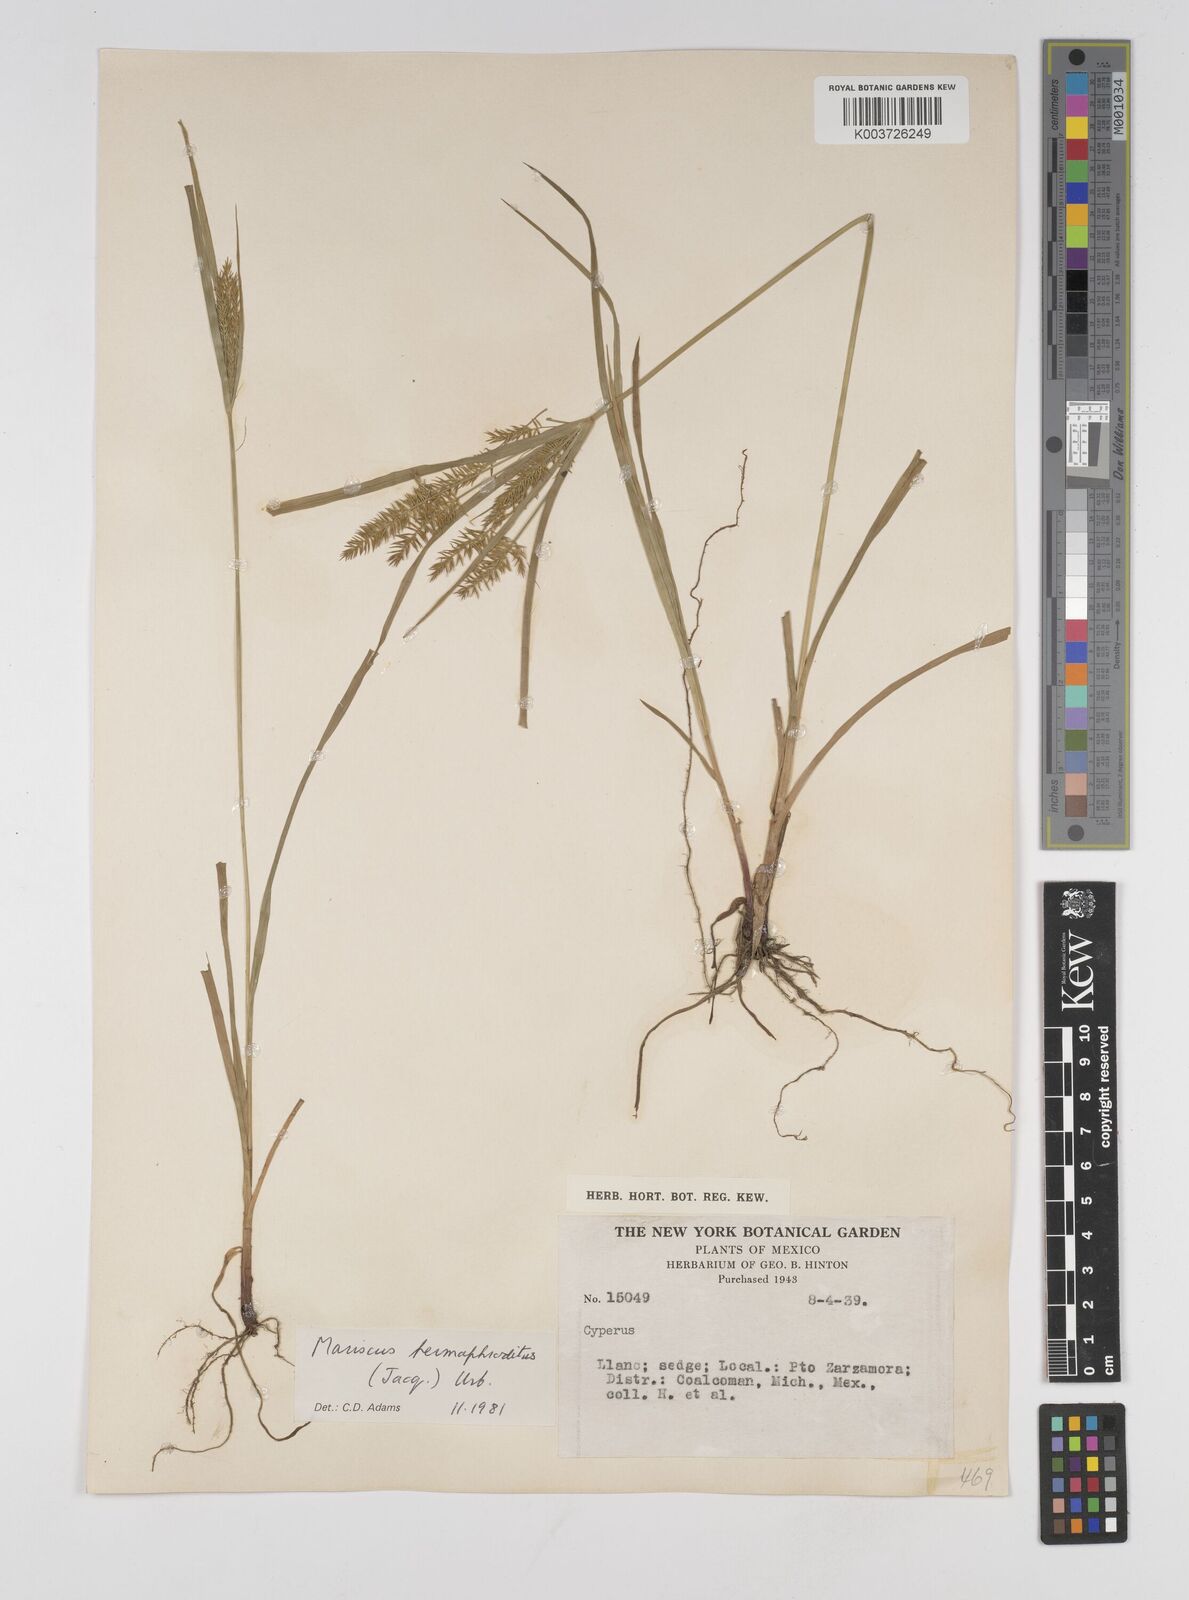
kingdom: Plantae
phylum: Tracheophyta
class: Liliopsida
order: Poales
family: Cyperaceae
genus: Cyperus
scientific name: Cyperus hermaphroditus
